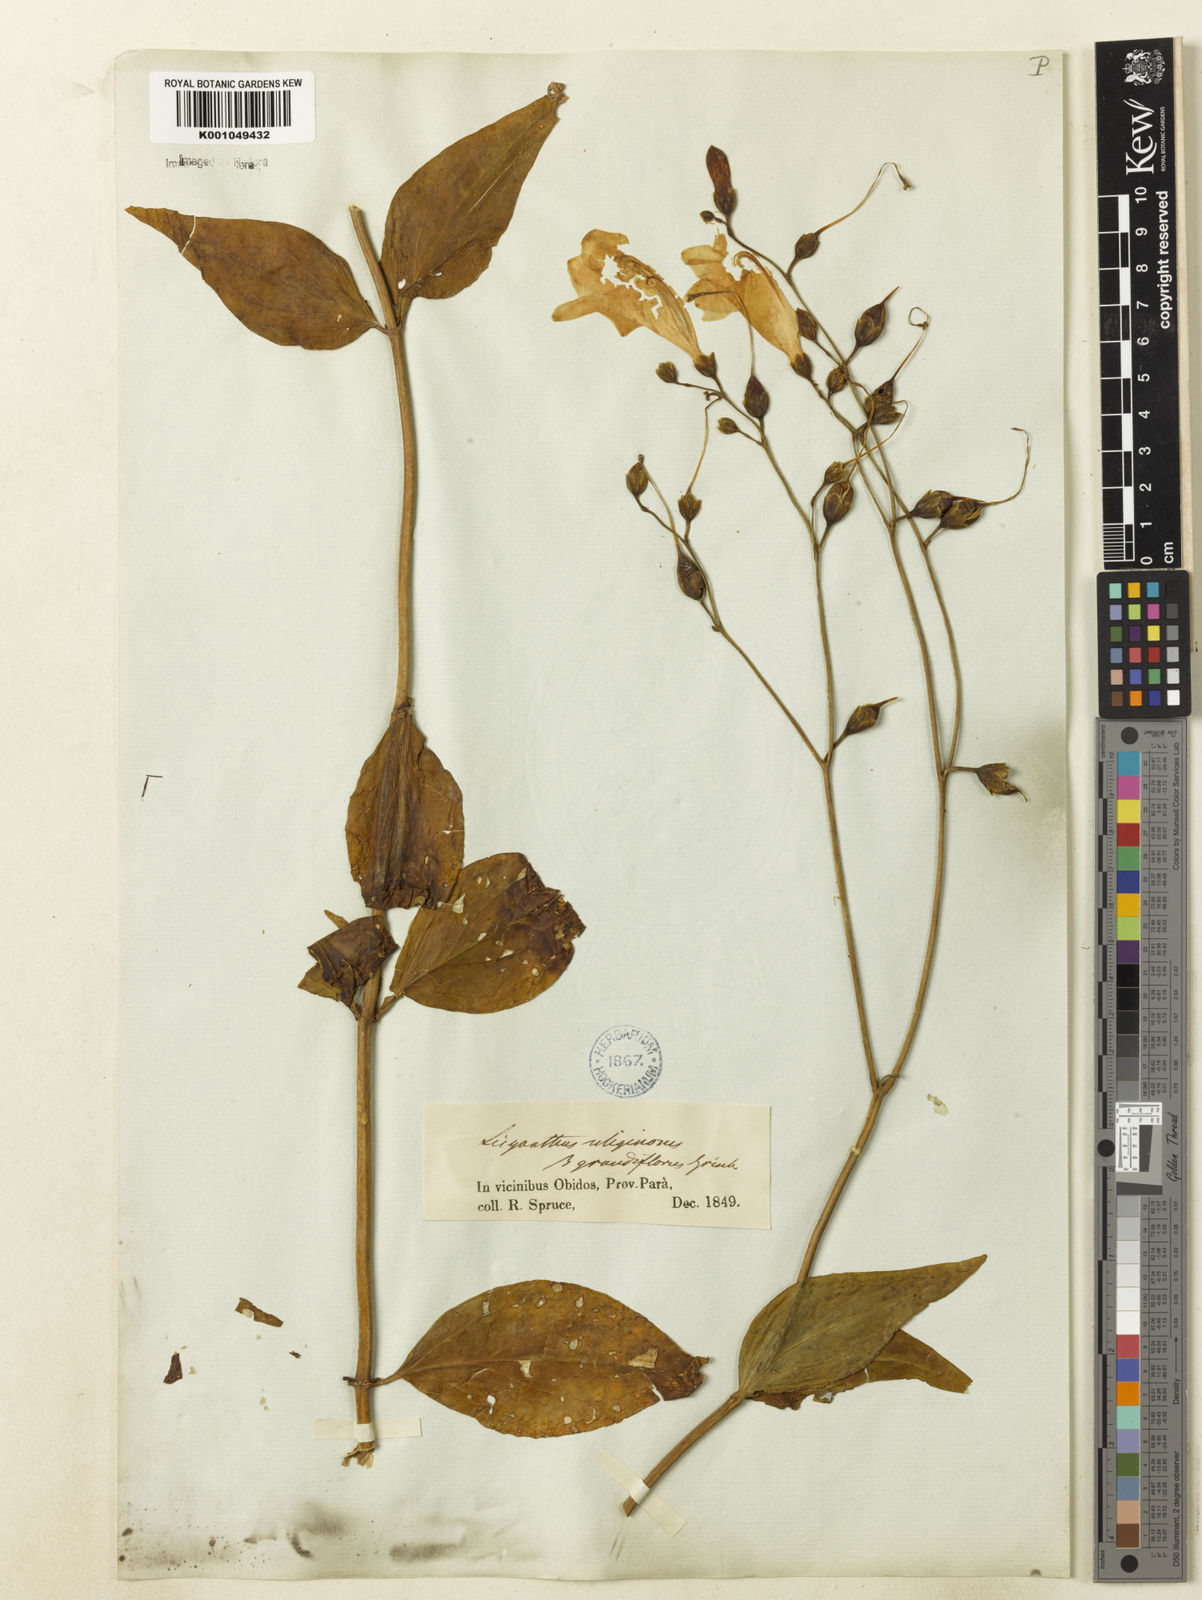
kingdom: Plantae
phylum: Tracheophyta
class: Magnoliopsida
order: Gentianales
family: Gentianaceae
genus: Chelonanthus
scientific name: Chelonanthus purpurascens
